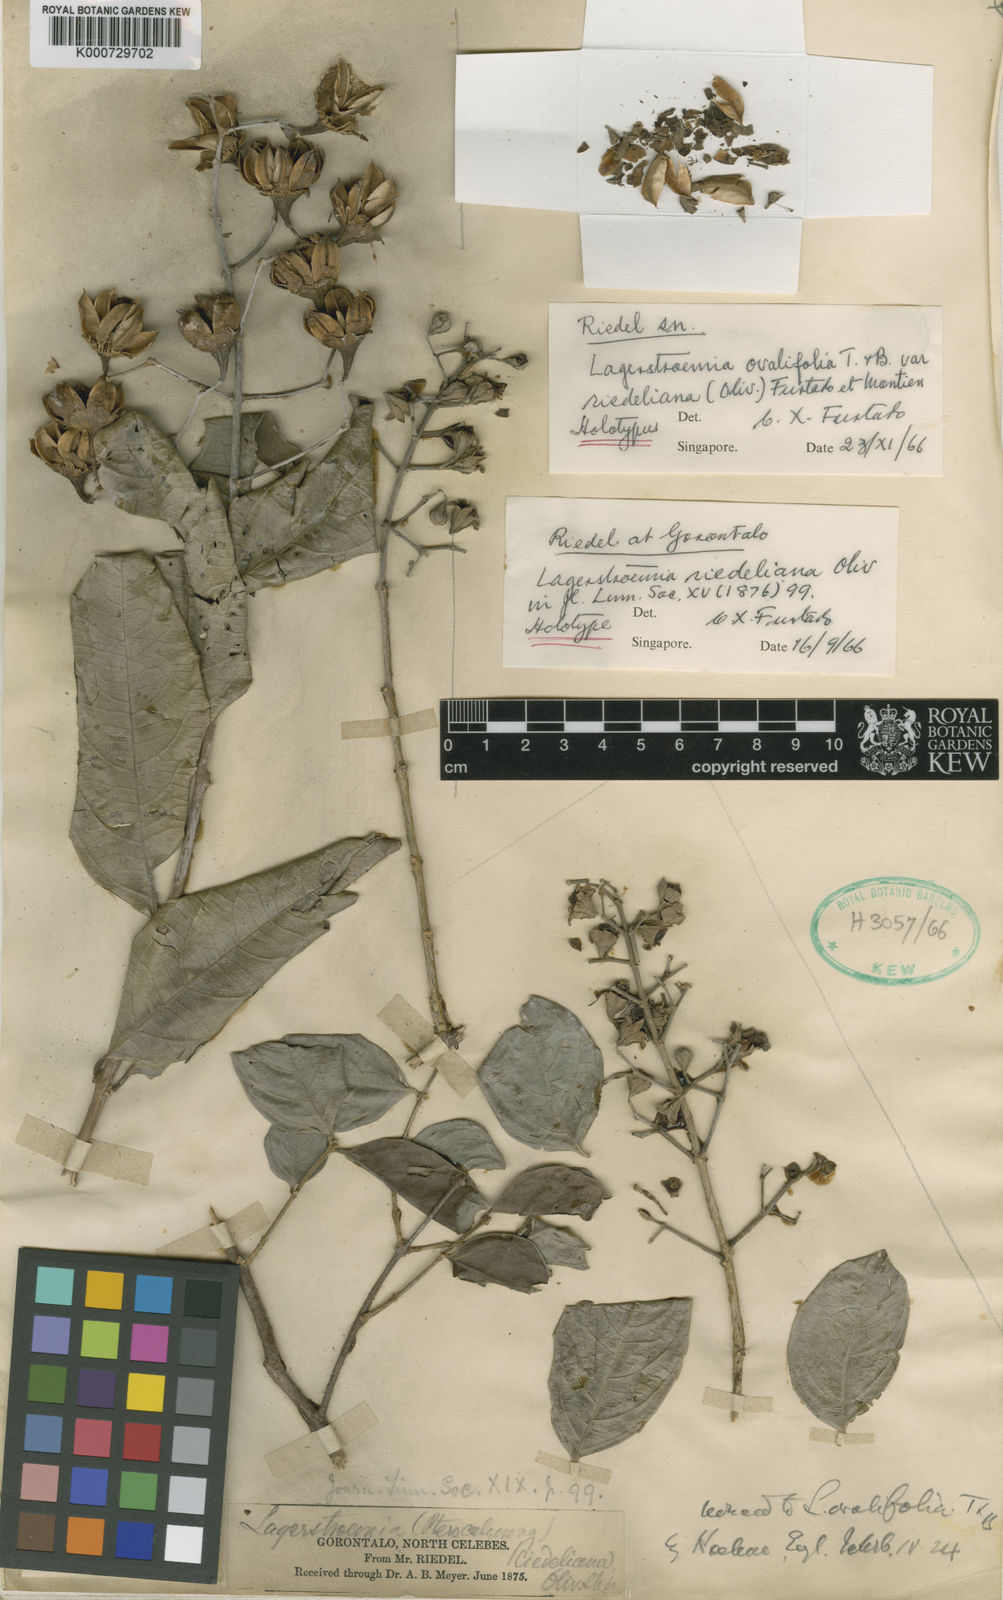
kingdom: Plantae
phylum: Tracheophyta
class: Magnoliopsida
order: Myrtales
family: Lythraceae
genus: Lagerstroemia
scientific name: Lagerstroemia ovalifolia
